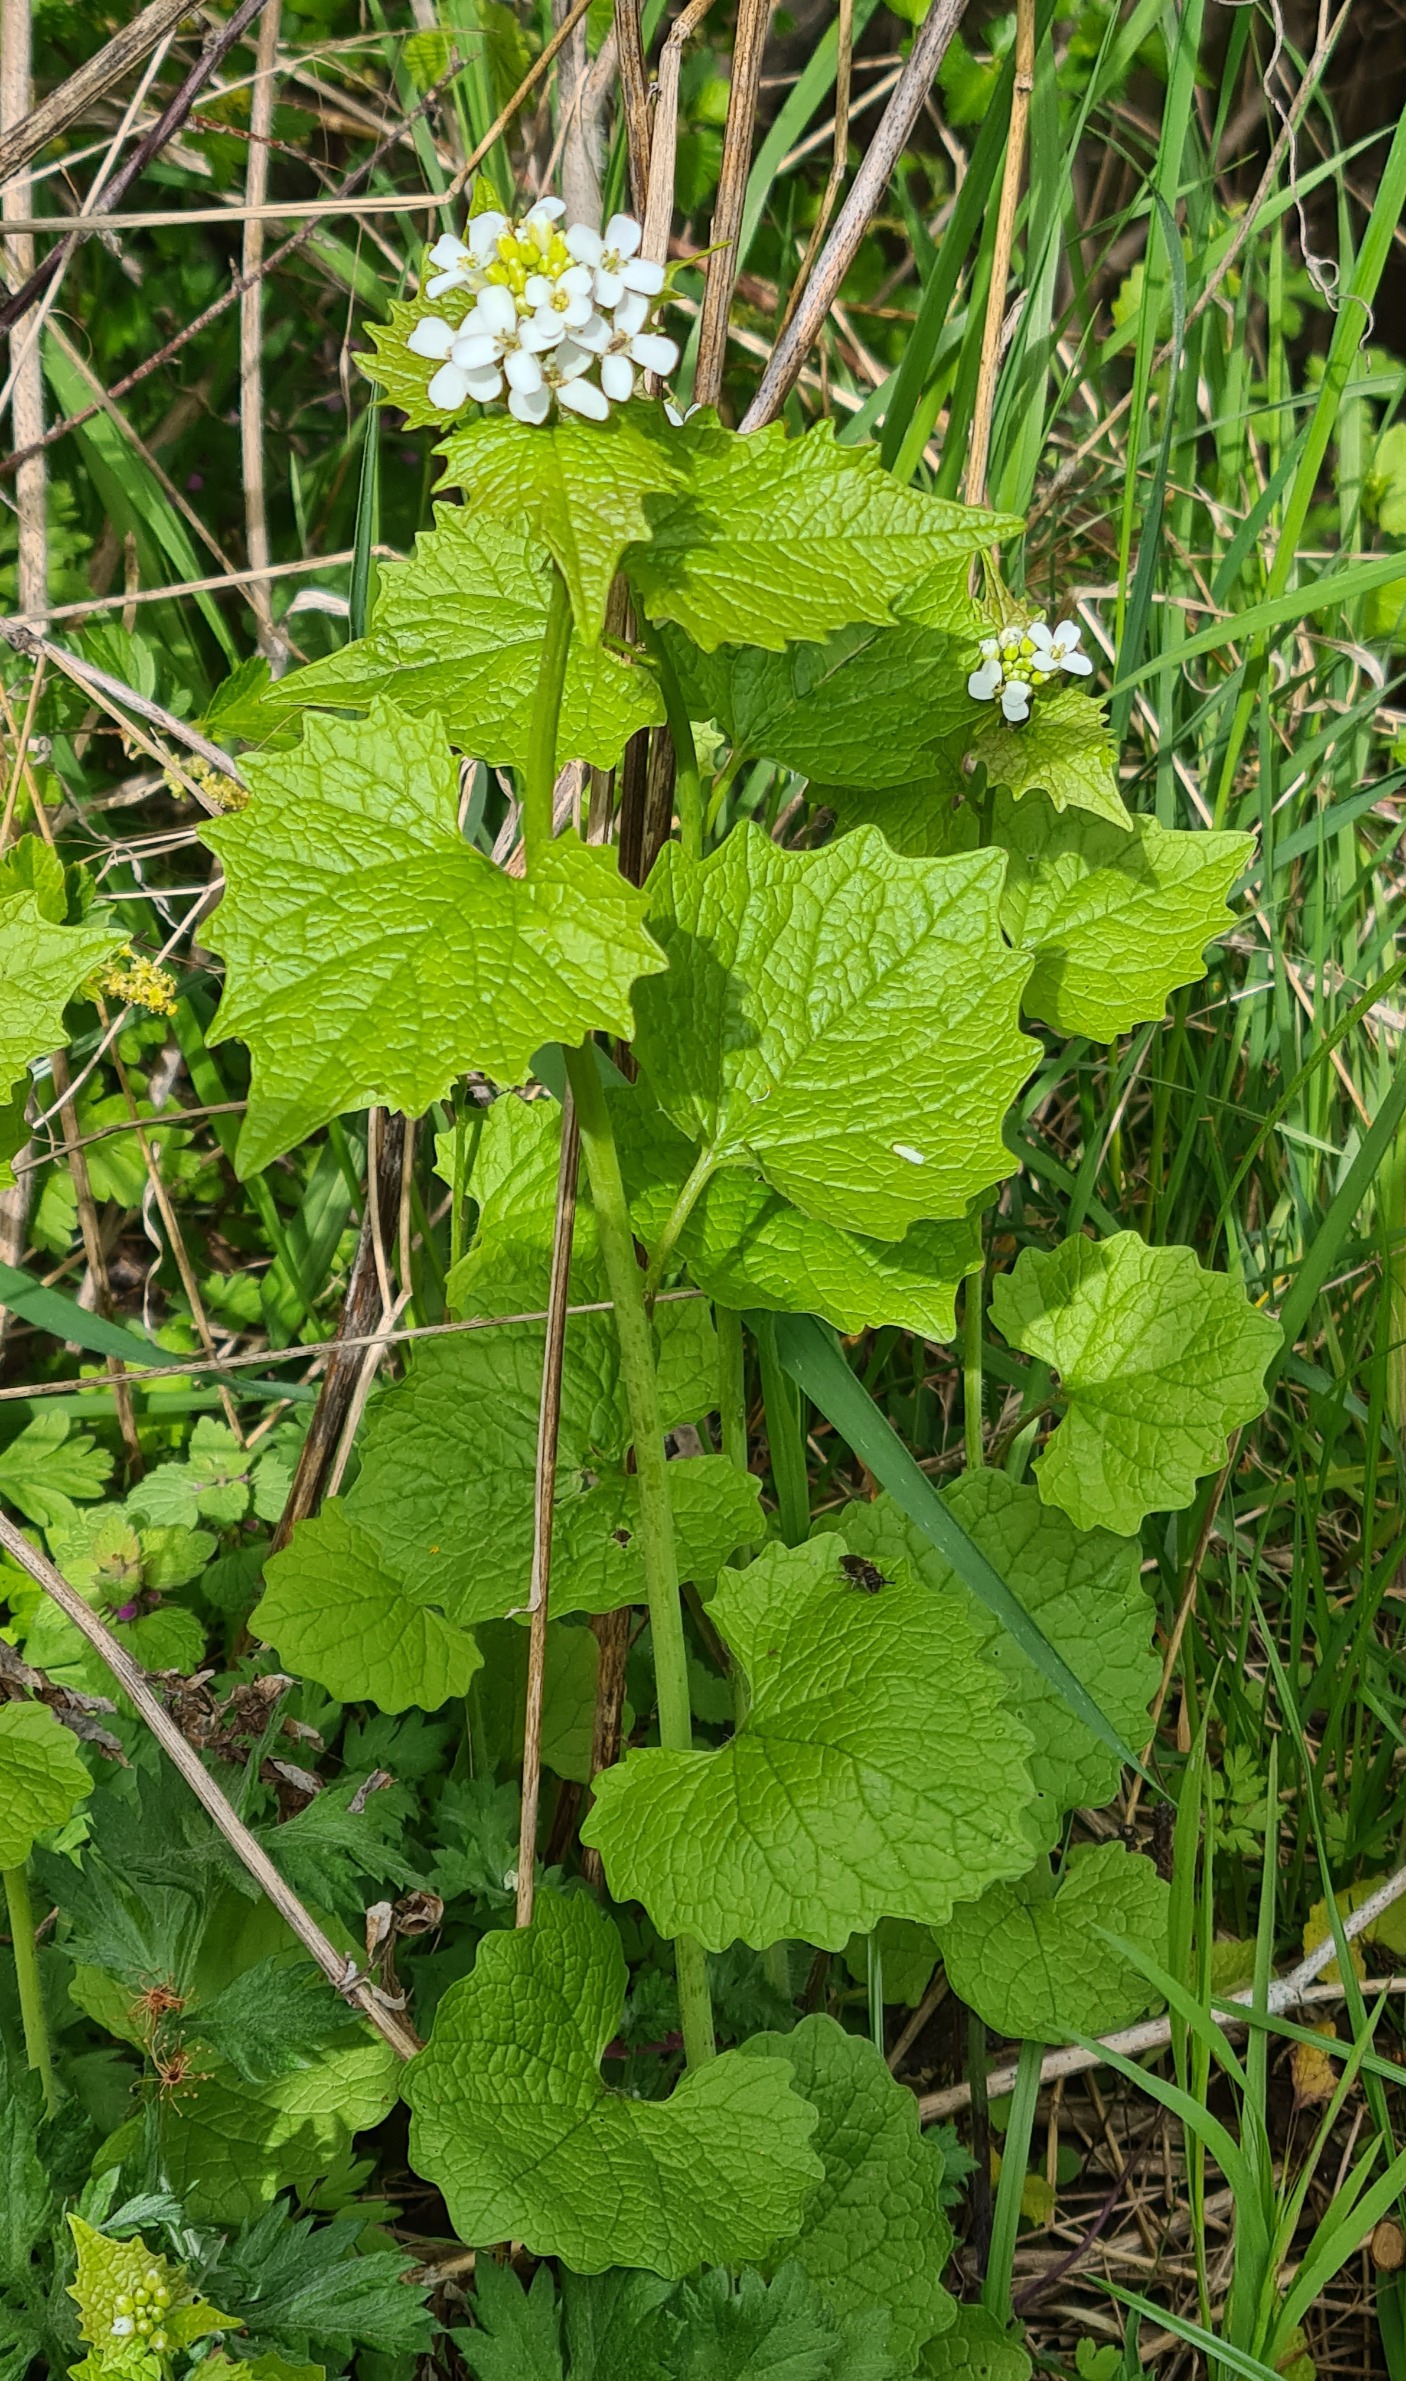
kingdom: Plantae
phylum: Tracheophyta
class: Magnoliopsida
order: Brassicales
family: Brassicaceae
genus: Alliaria
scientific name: Alliaria petiolata
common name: Løgkarse
